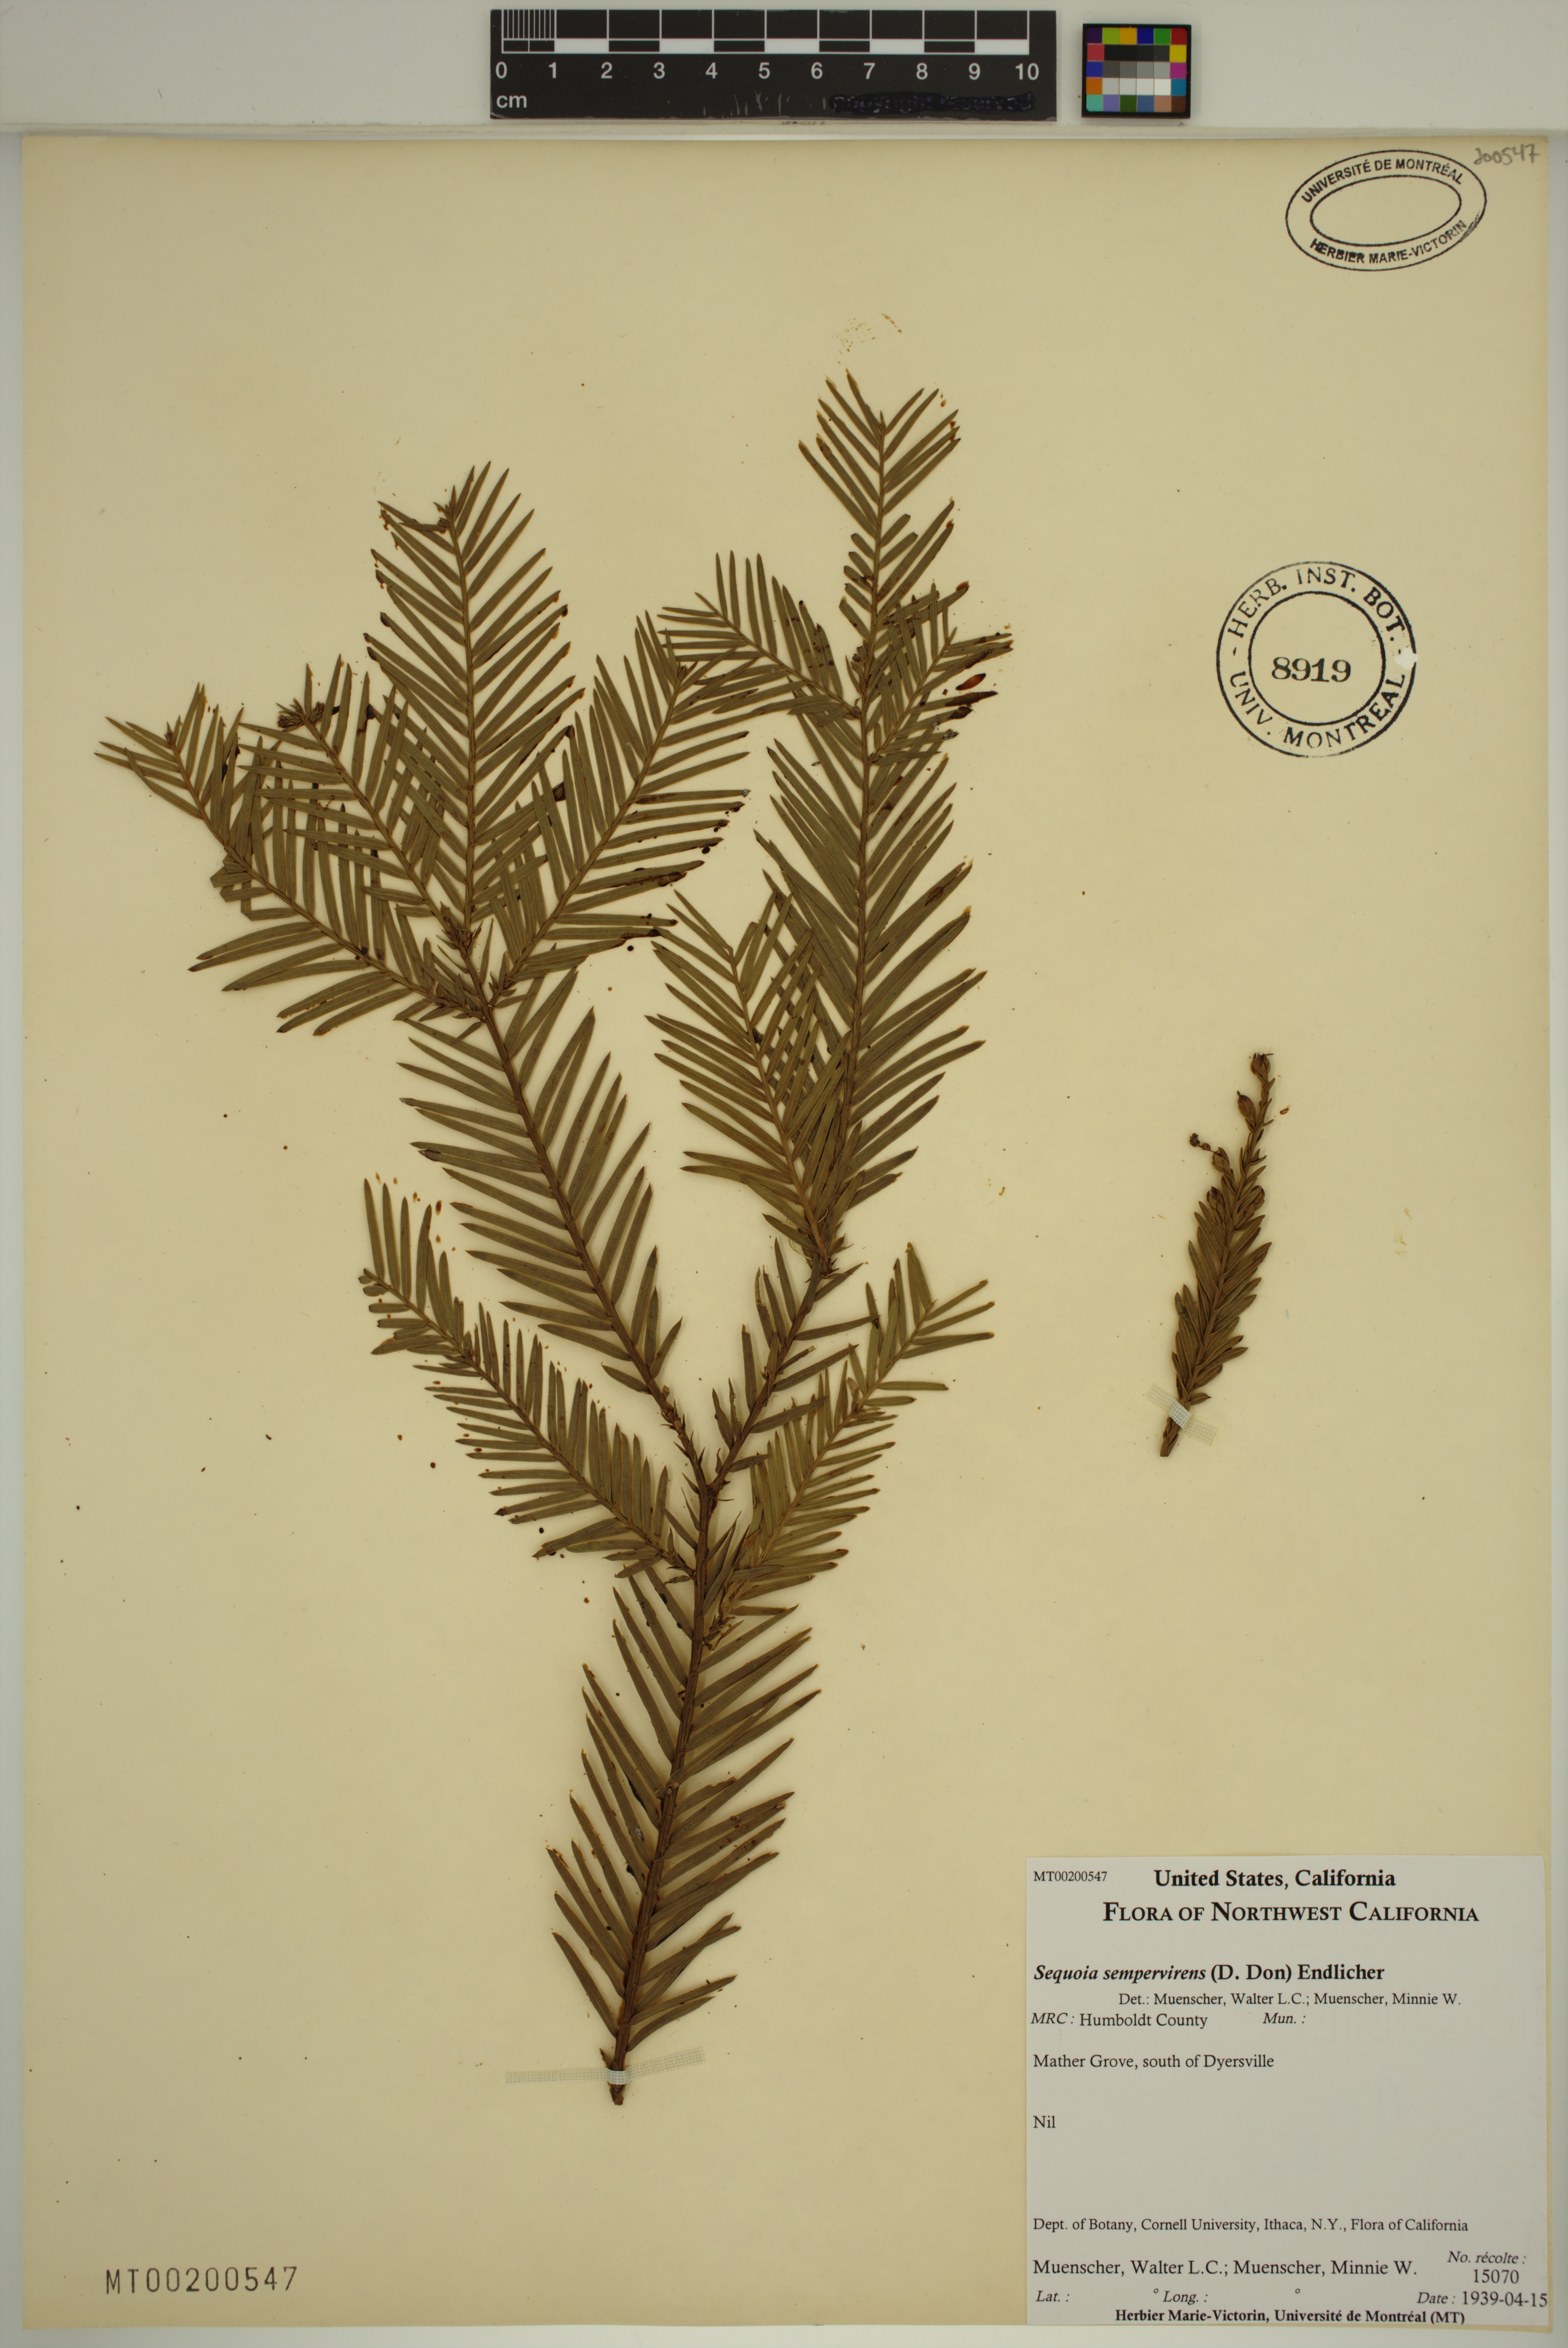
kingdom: Plantae
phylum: Tracheophyta
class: Pinopsida
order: Pinales
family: Cupressaceae
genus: Sequoia
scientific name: Sequoia sempervirens
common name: Coast redwood
